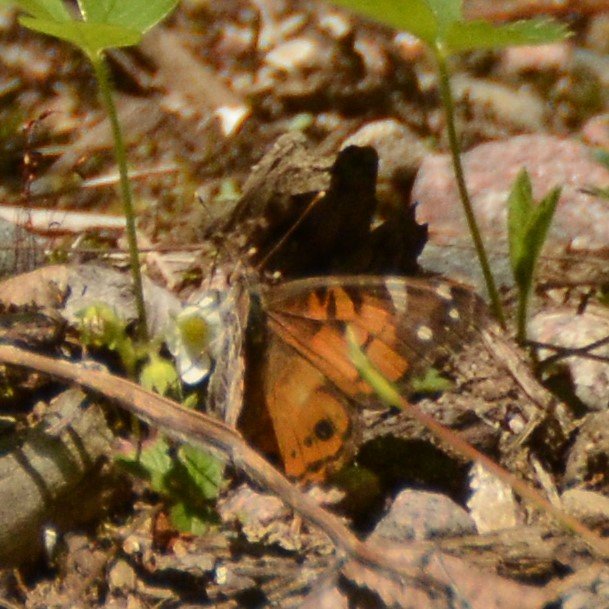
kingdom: Animalia
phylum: Arthropoda
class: Insecta
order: Lepidoptera
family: Nymphalidae
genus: Vanessa
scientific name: Vanessa virginiensis
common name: American Lady
